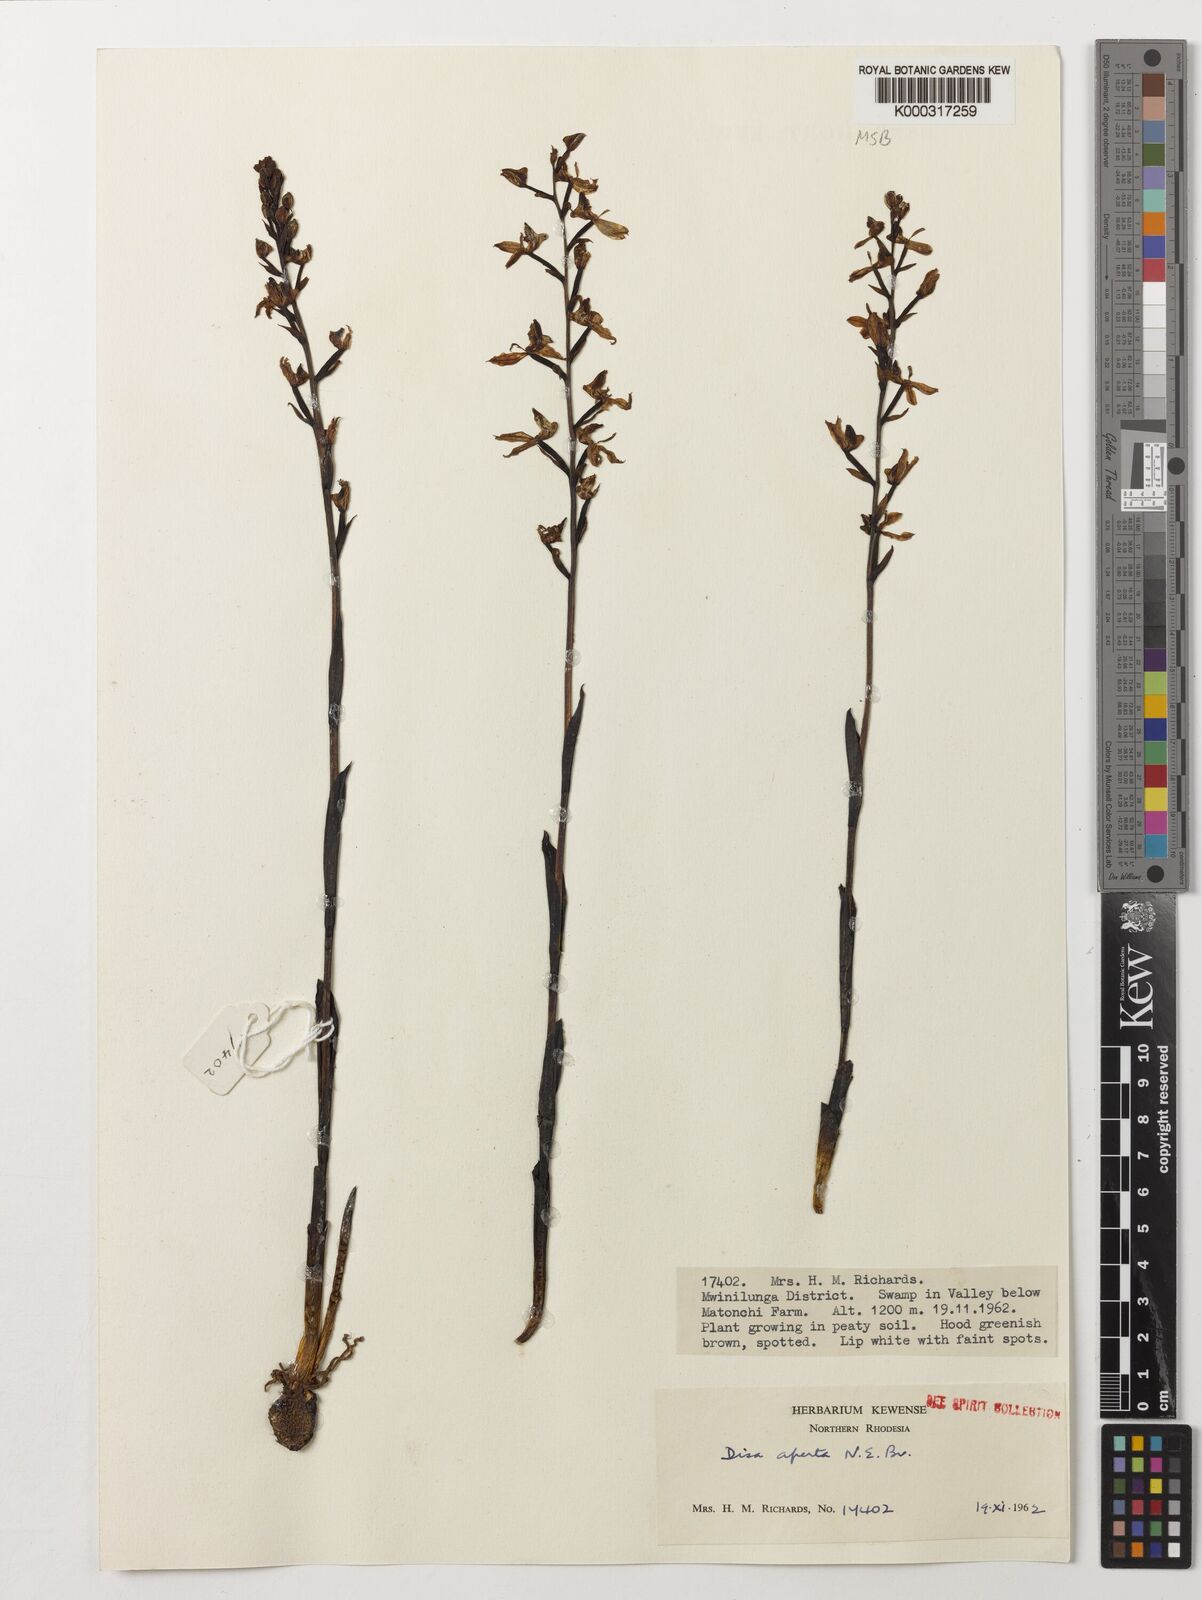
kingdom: Plantae
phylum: Tracheophyta
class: Liliopsida
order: Asparagales
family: Orchidaceae
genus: Disa
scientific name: Disa aperta
